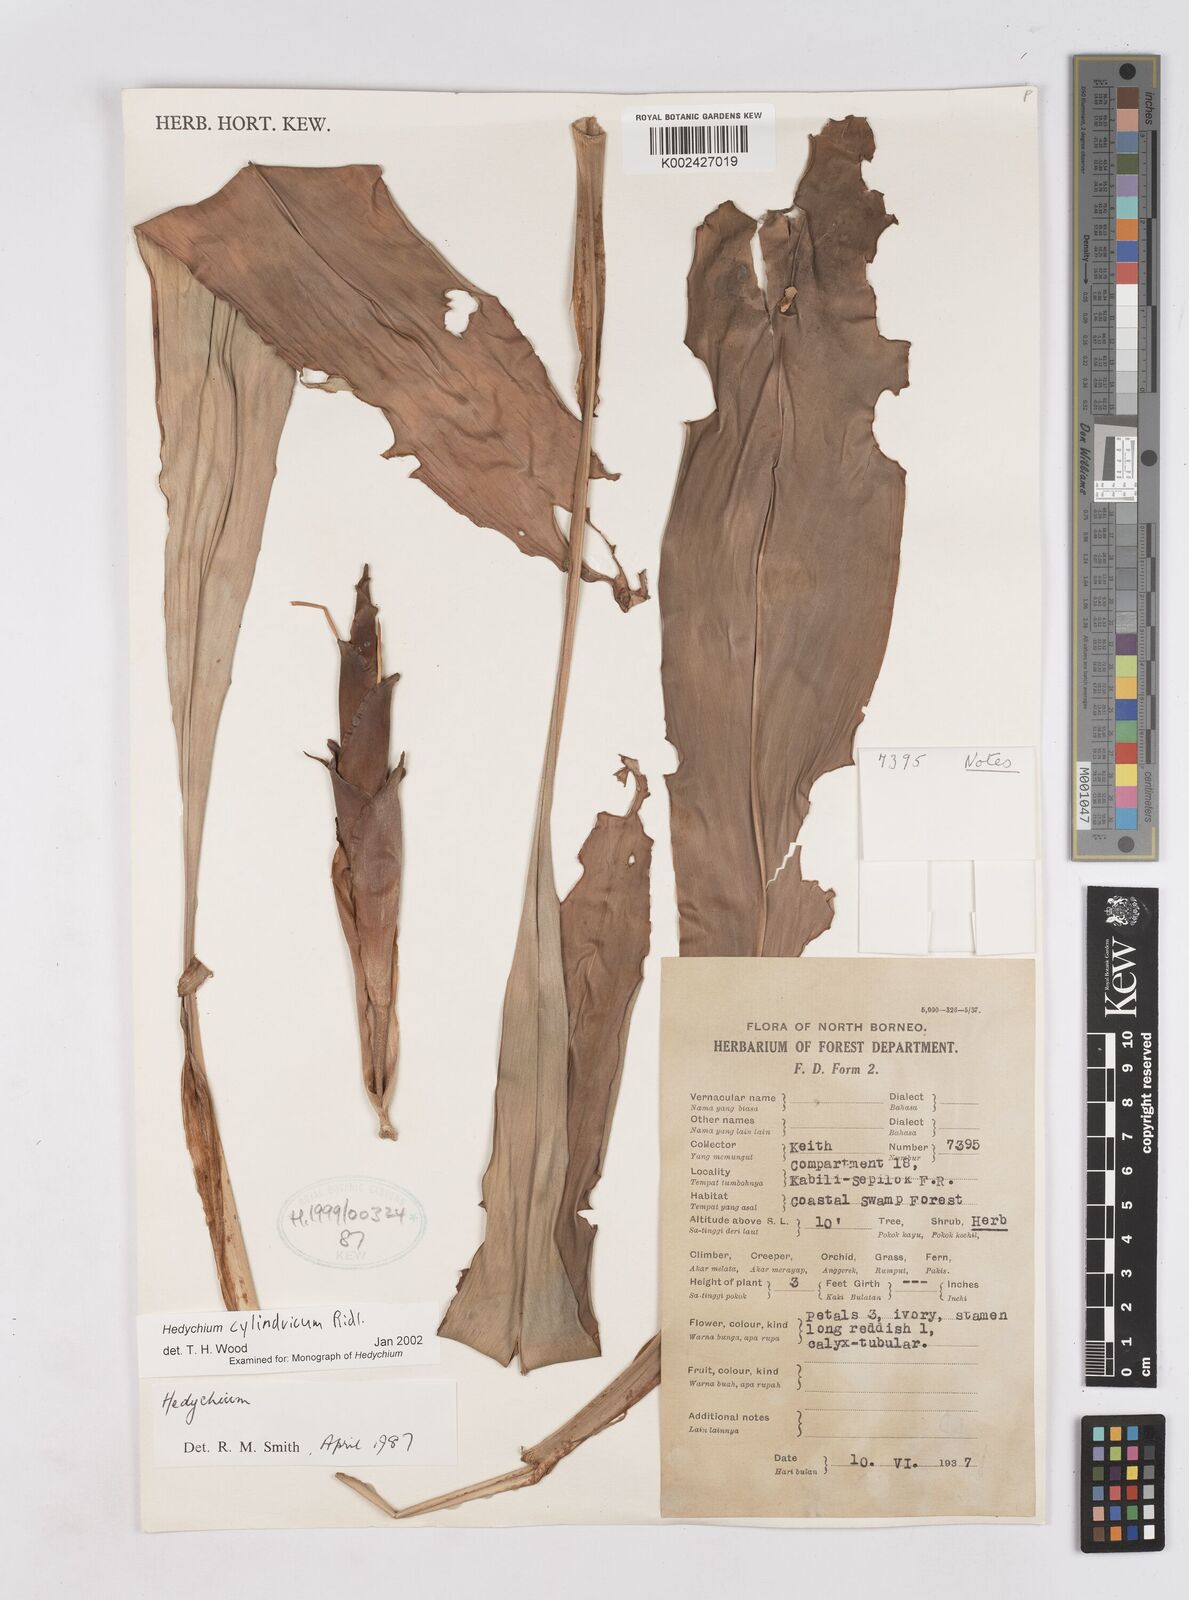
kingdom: Plantae
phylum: Tracheophyta
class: Liliopsida
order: Zingiberales
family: Zingiberaceae
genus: Hedychium
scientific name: Hedychium cylindricum
